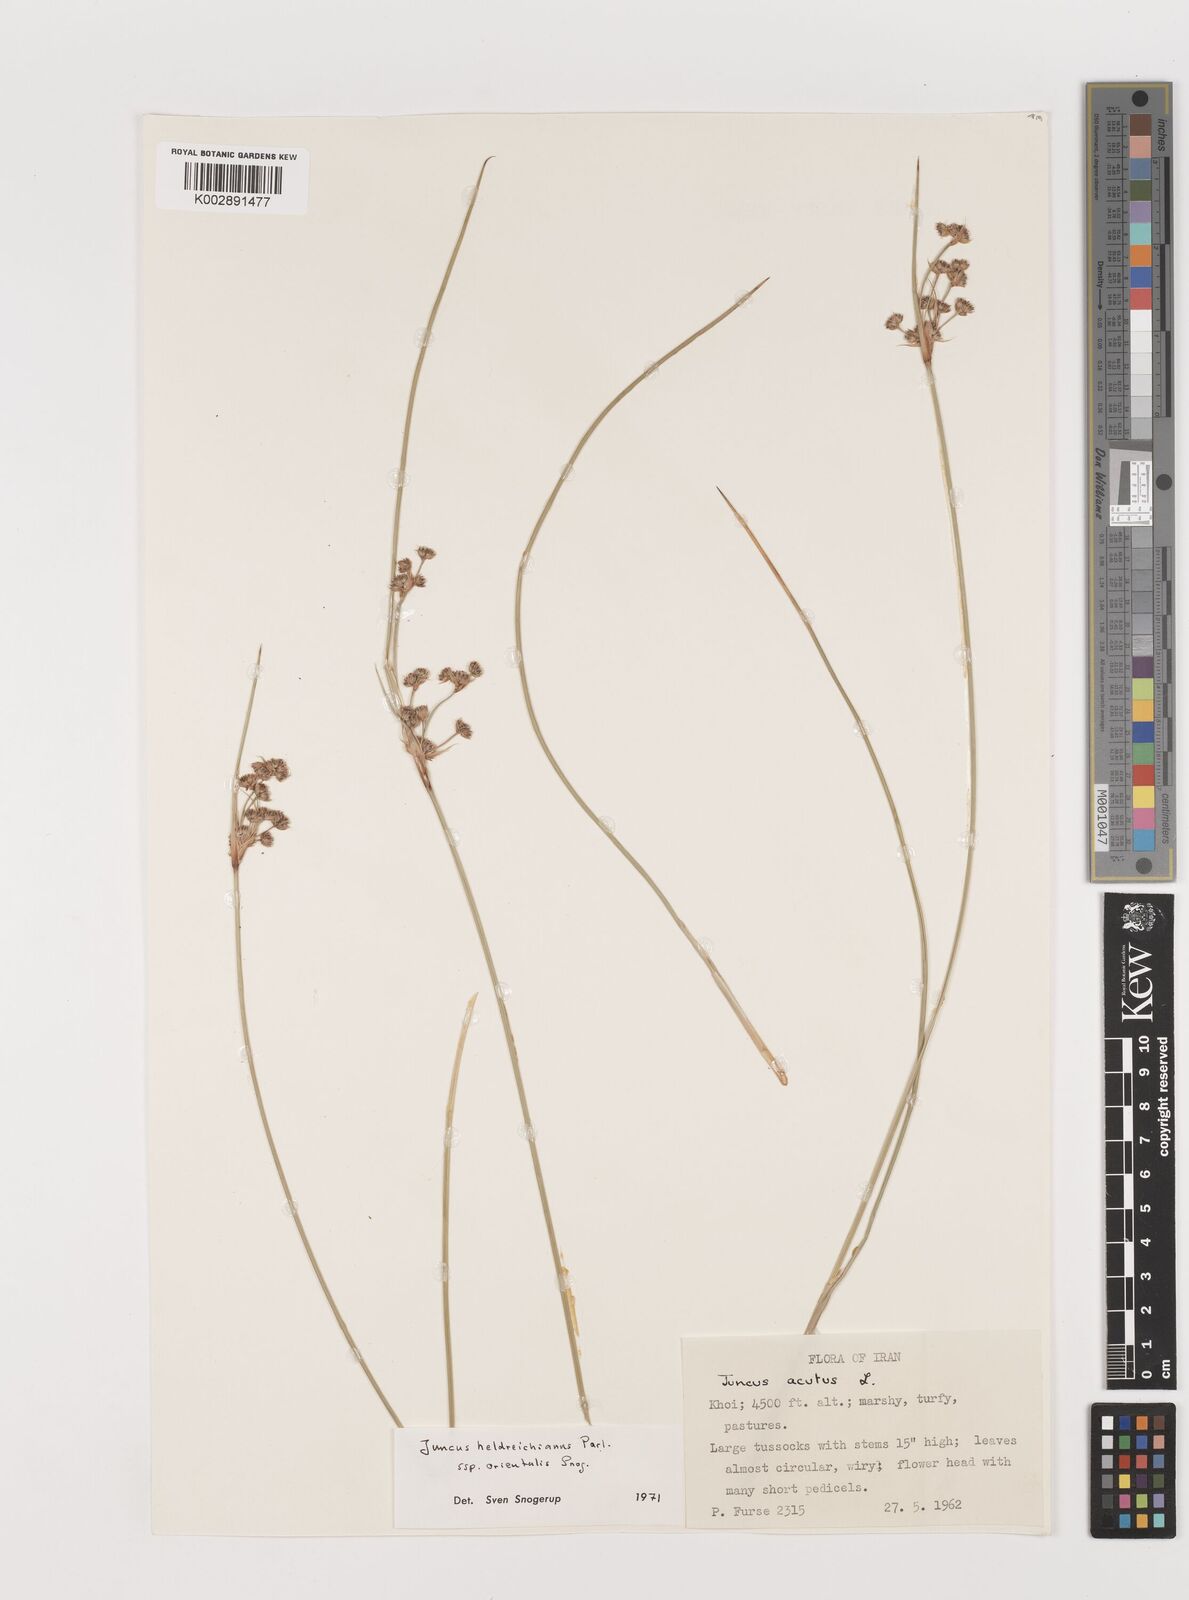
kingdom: Plantae
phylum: Tracheophyta
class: Liliopsida
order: Poales
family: Juncaceae
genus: Juncus
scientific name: Juncus heldreichianus
